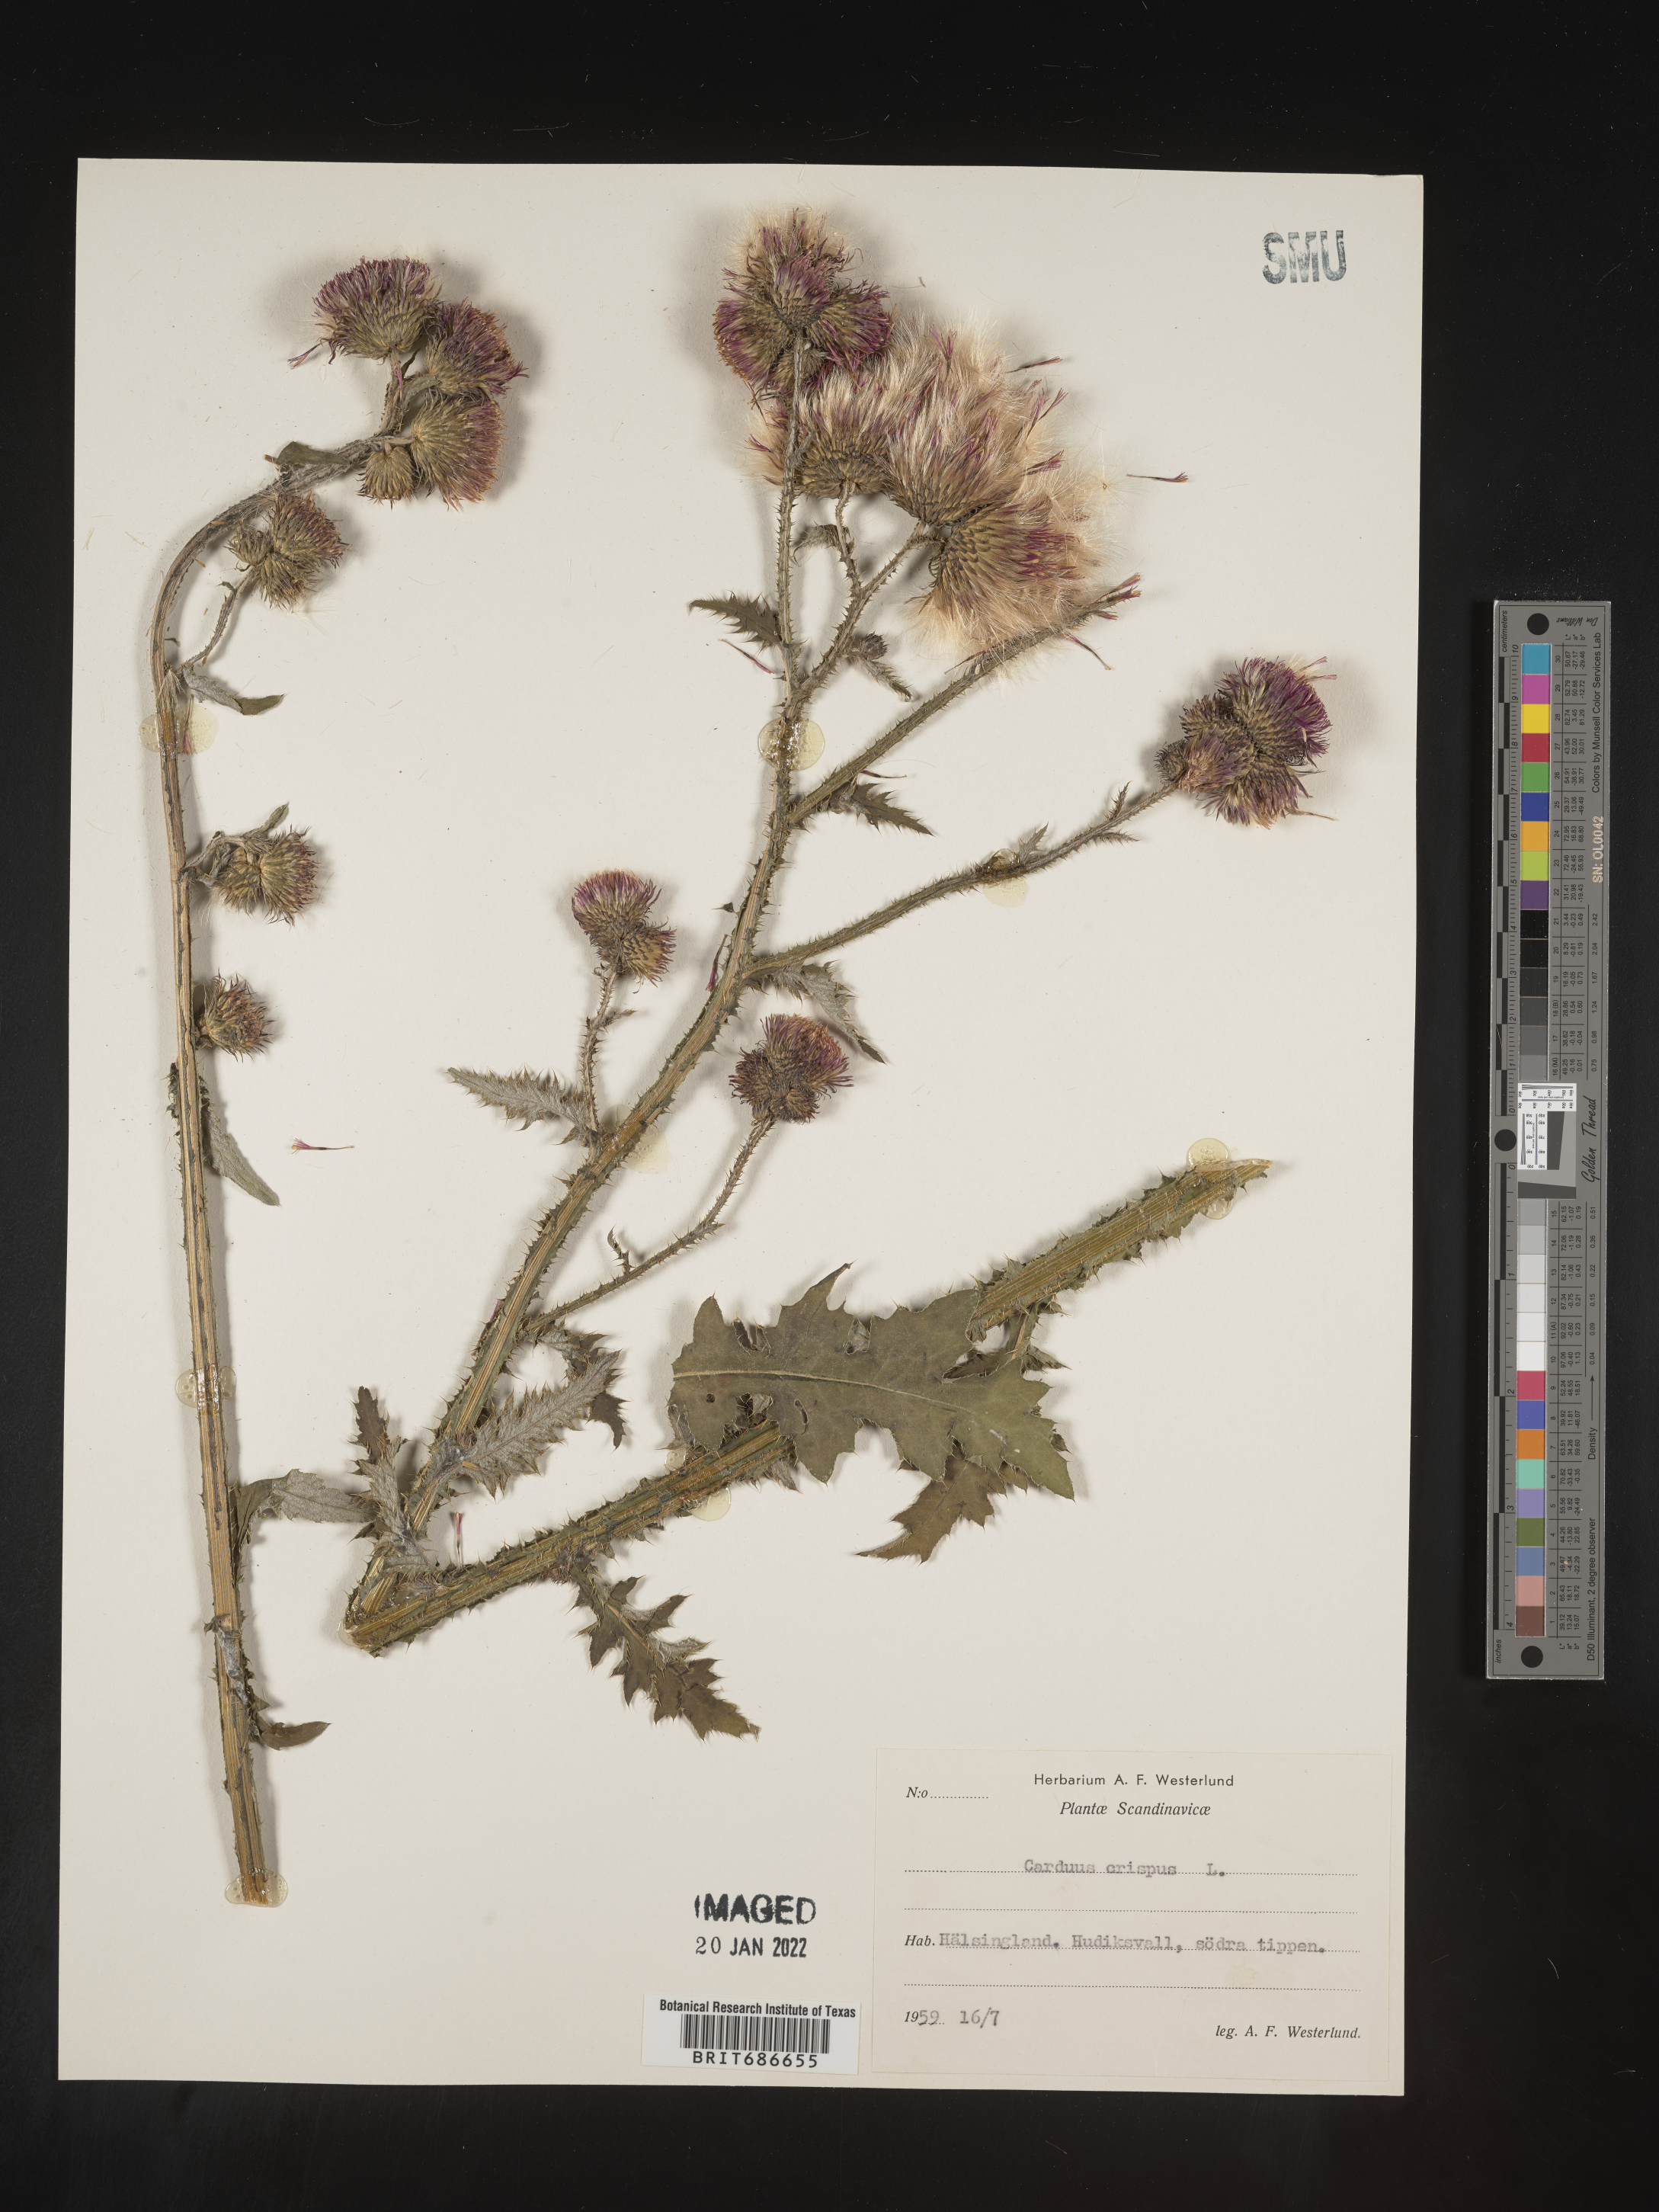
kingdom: Plantae
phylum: Tracheophyta
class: Magnoliopsida
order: Asterales
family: Asteraceae
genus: Carduus
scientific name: Carduus crispus
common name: Welted thistle
